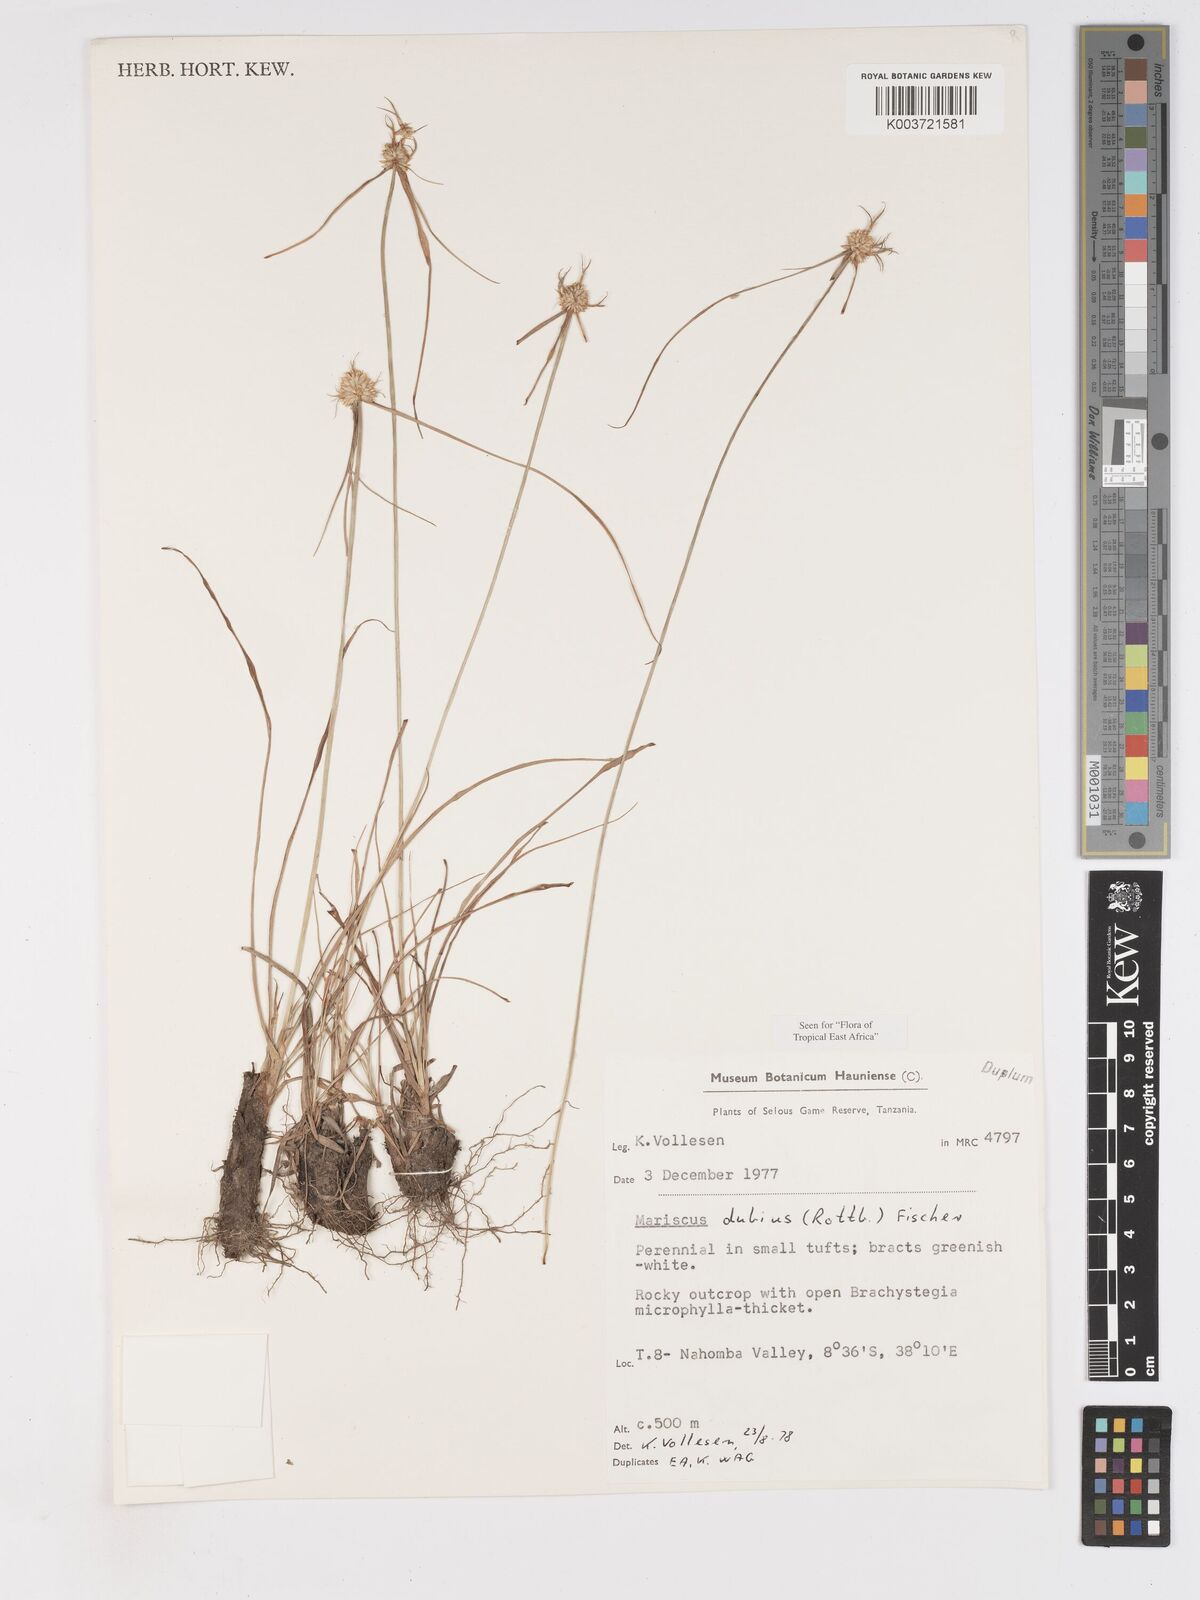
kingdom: Plantae
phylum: Tracheophyta
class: Liliopsida
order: Poales
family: Cyperaceae
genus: Cyperus
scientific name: Cyperus dubius
